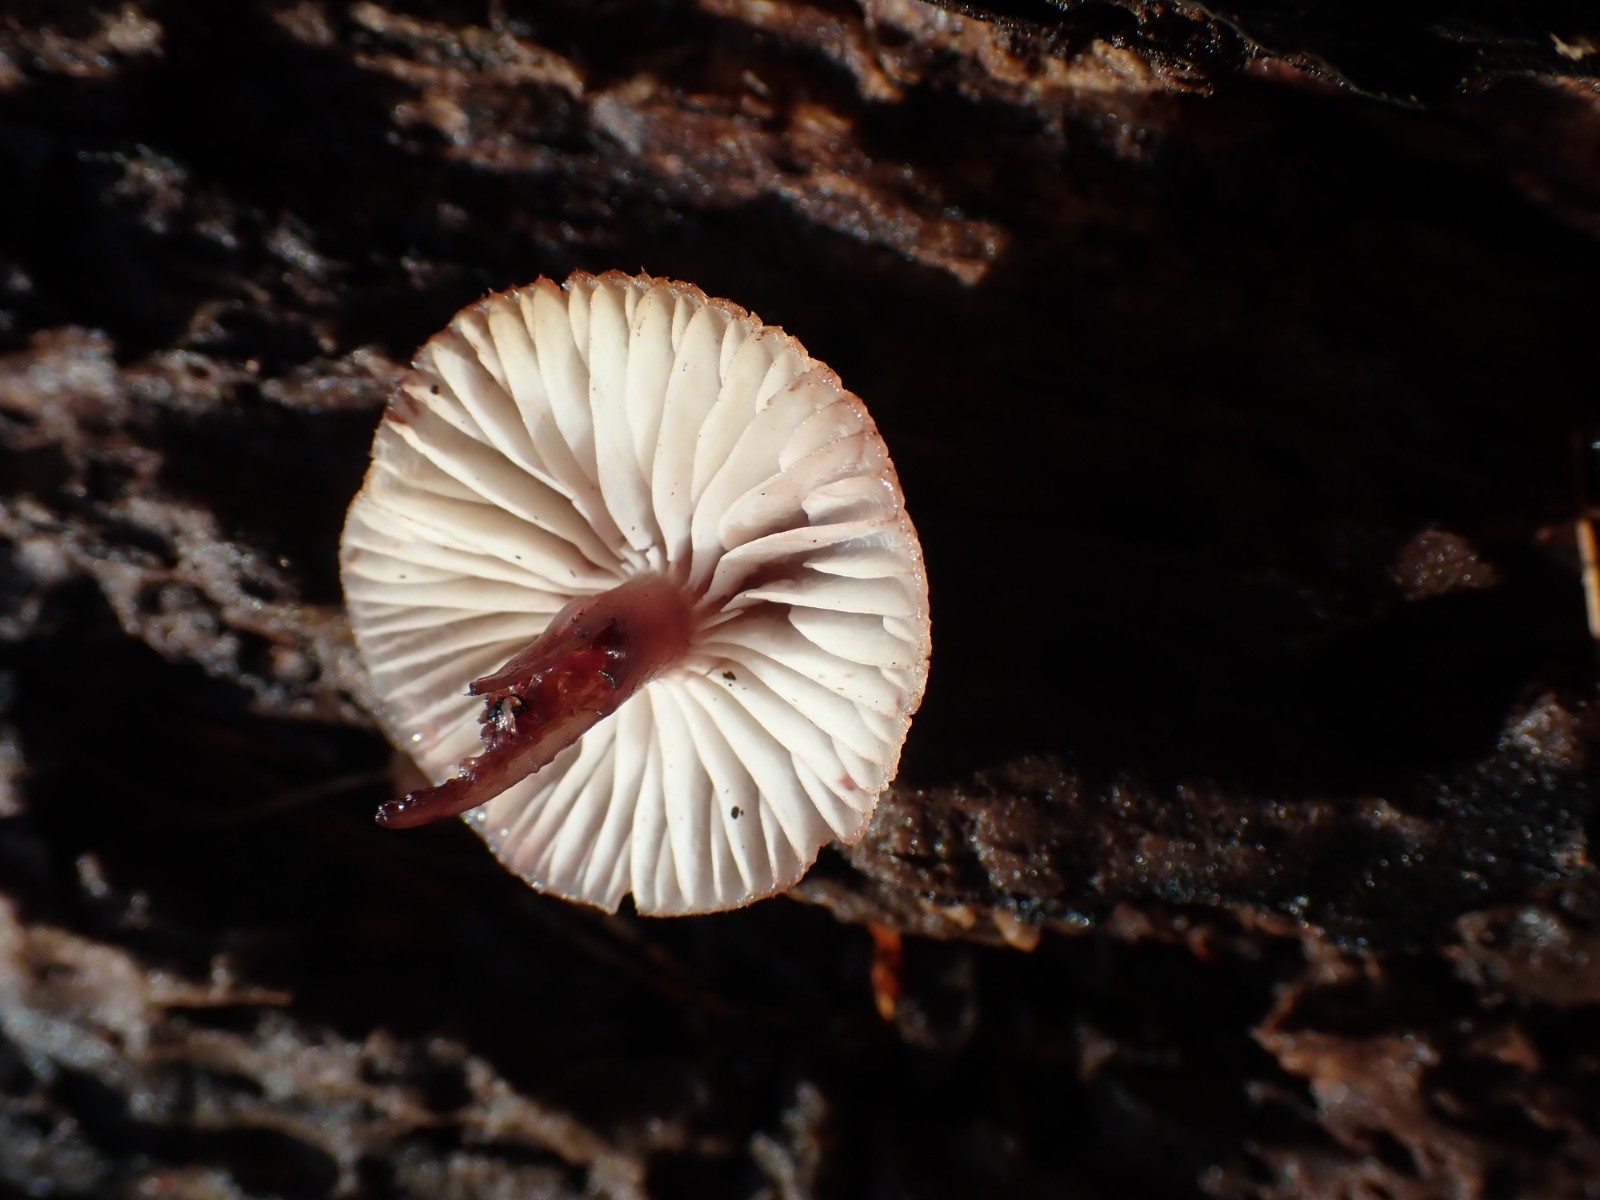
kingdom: Fungi
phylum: Basidiomycota
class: Agaricomycetes
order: Agaricales
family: Mycenaceae
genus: Mycena
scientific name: Mycena haematopus
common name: blødende huesvamp
